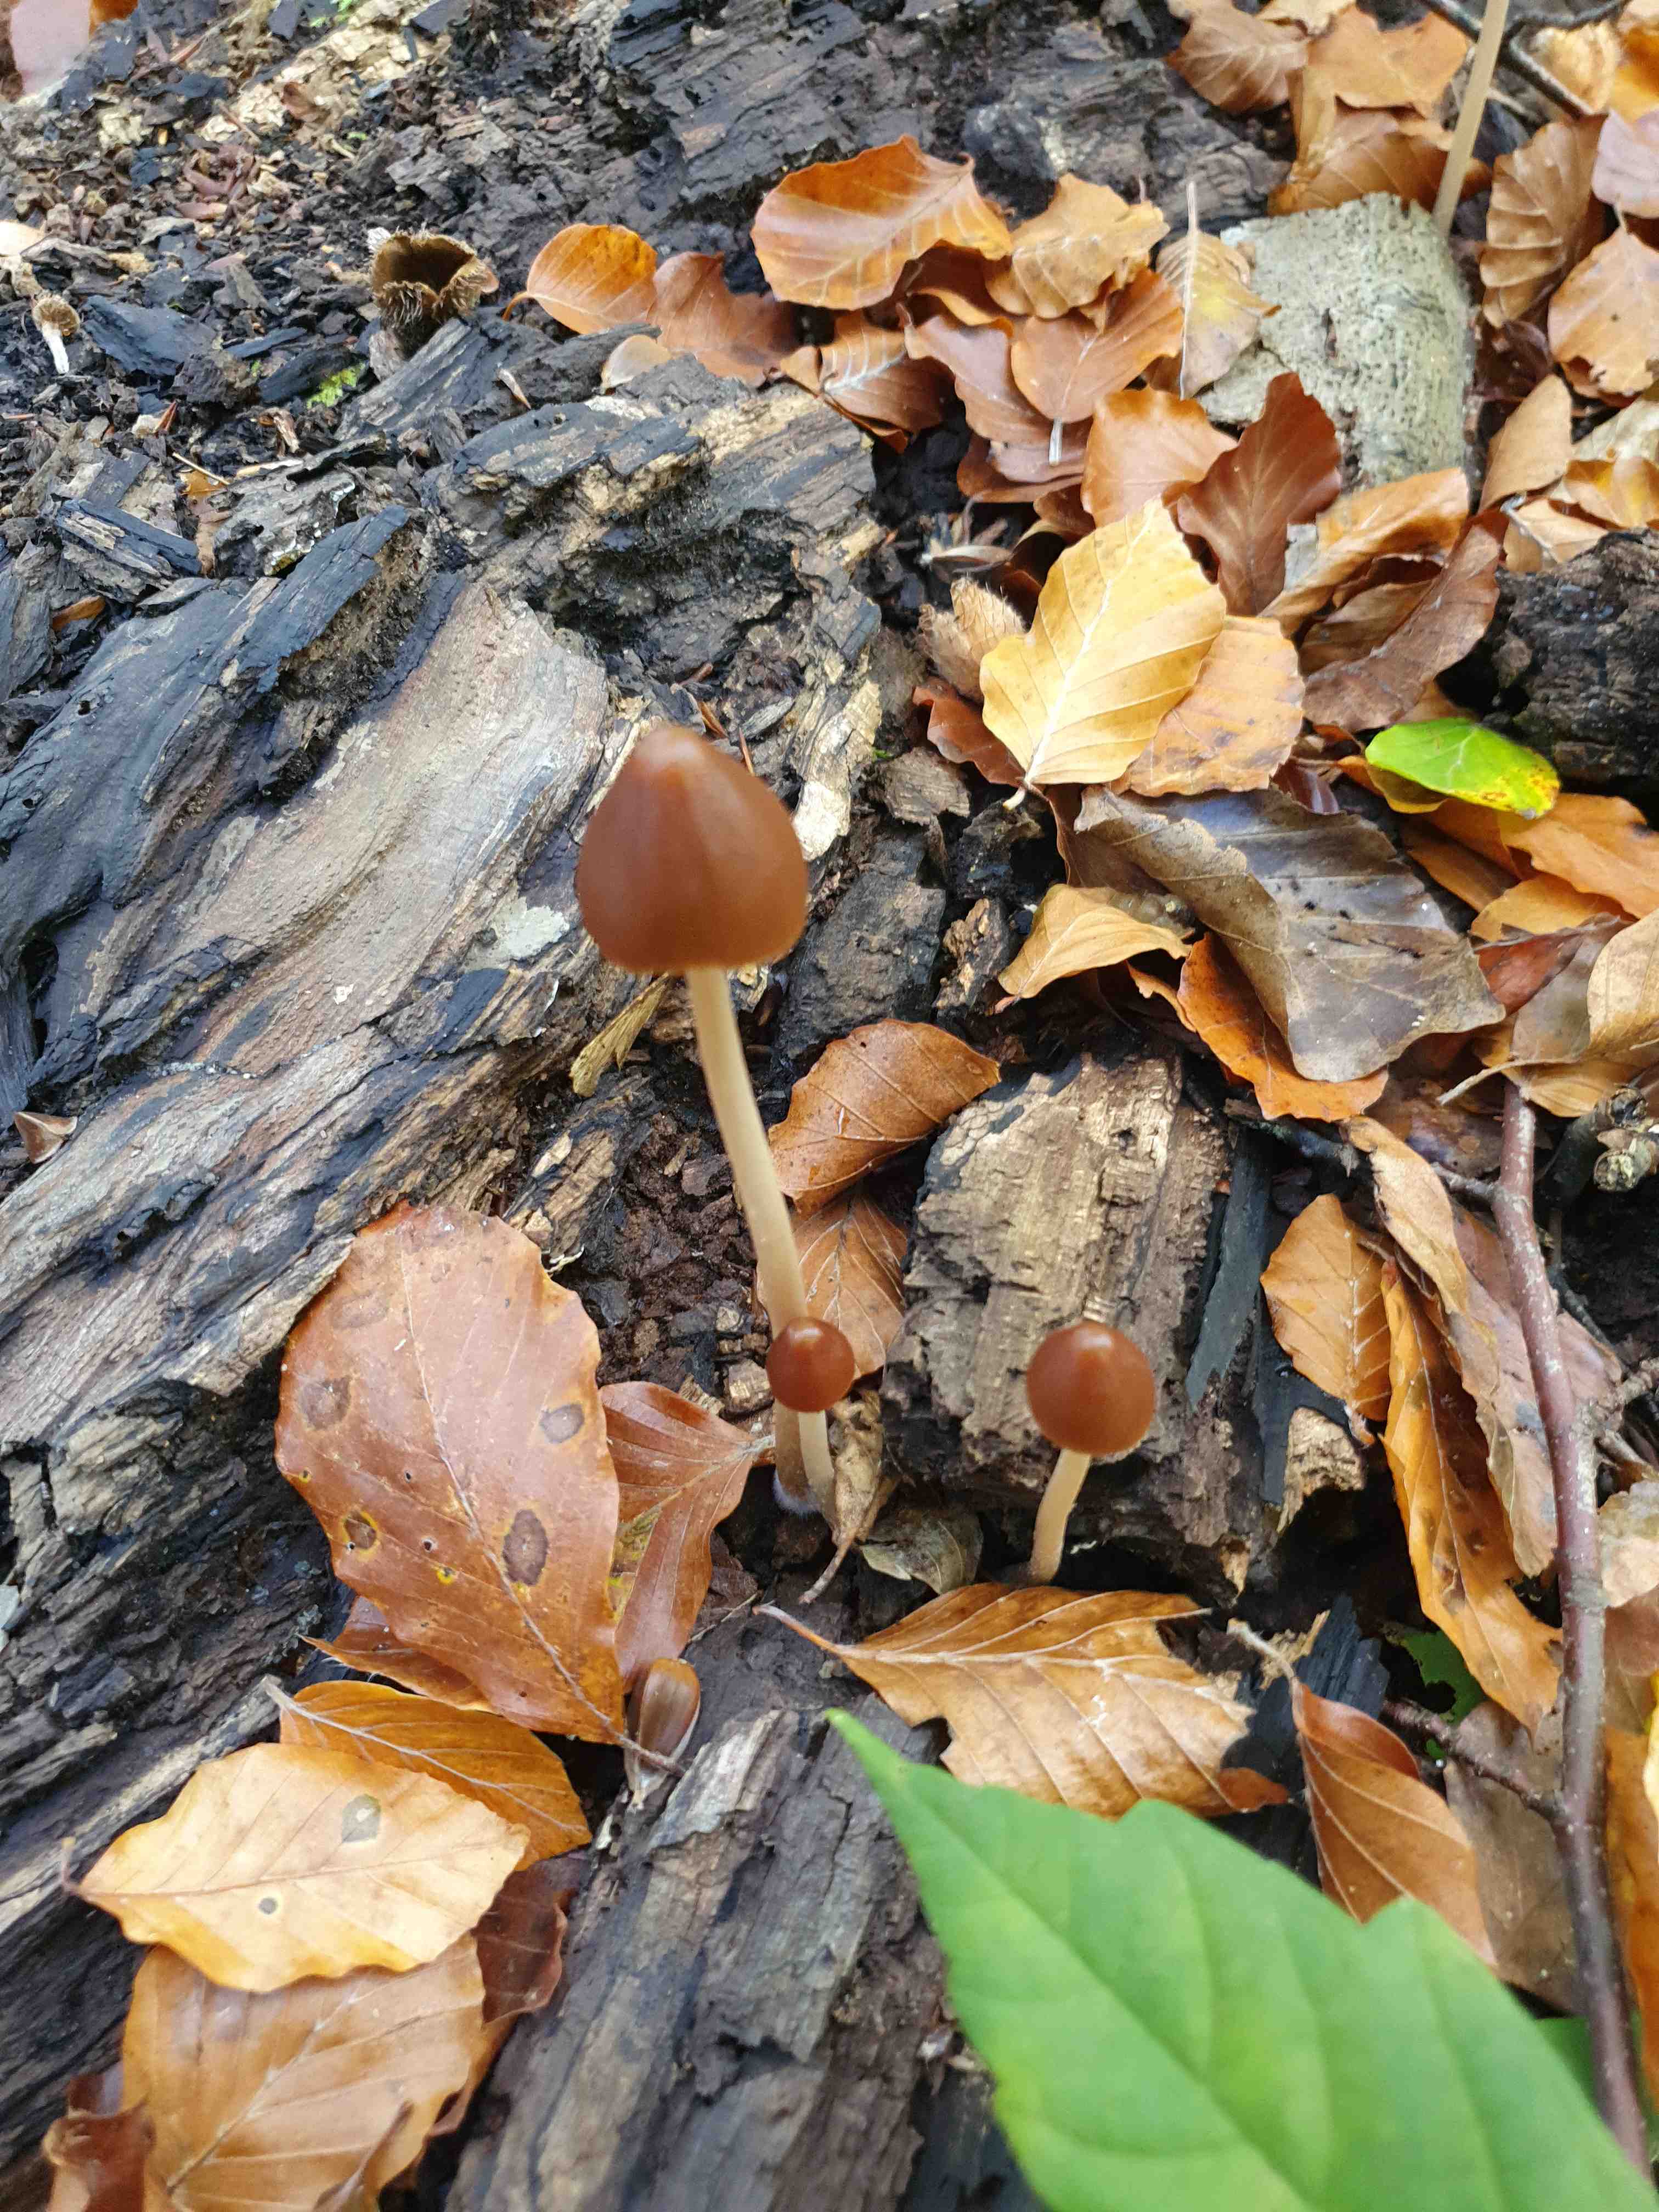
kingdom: Fungi
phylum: Basidiomycota
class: Agaricomycetes
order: Agaricales
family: Psathyrellaceae
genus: Parasola
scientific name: Parasola conopilea
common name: kegle-hjulhat
